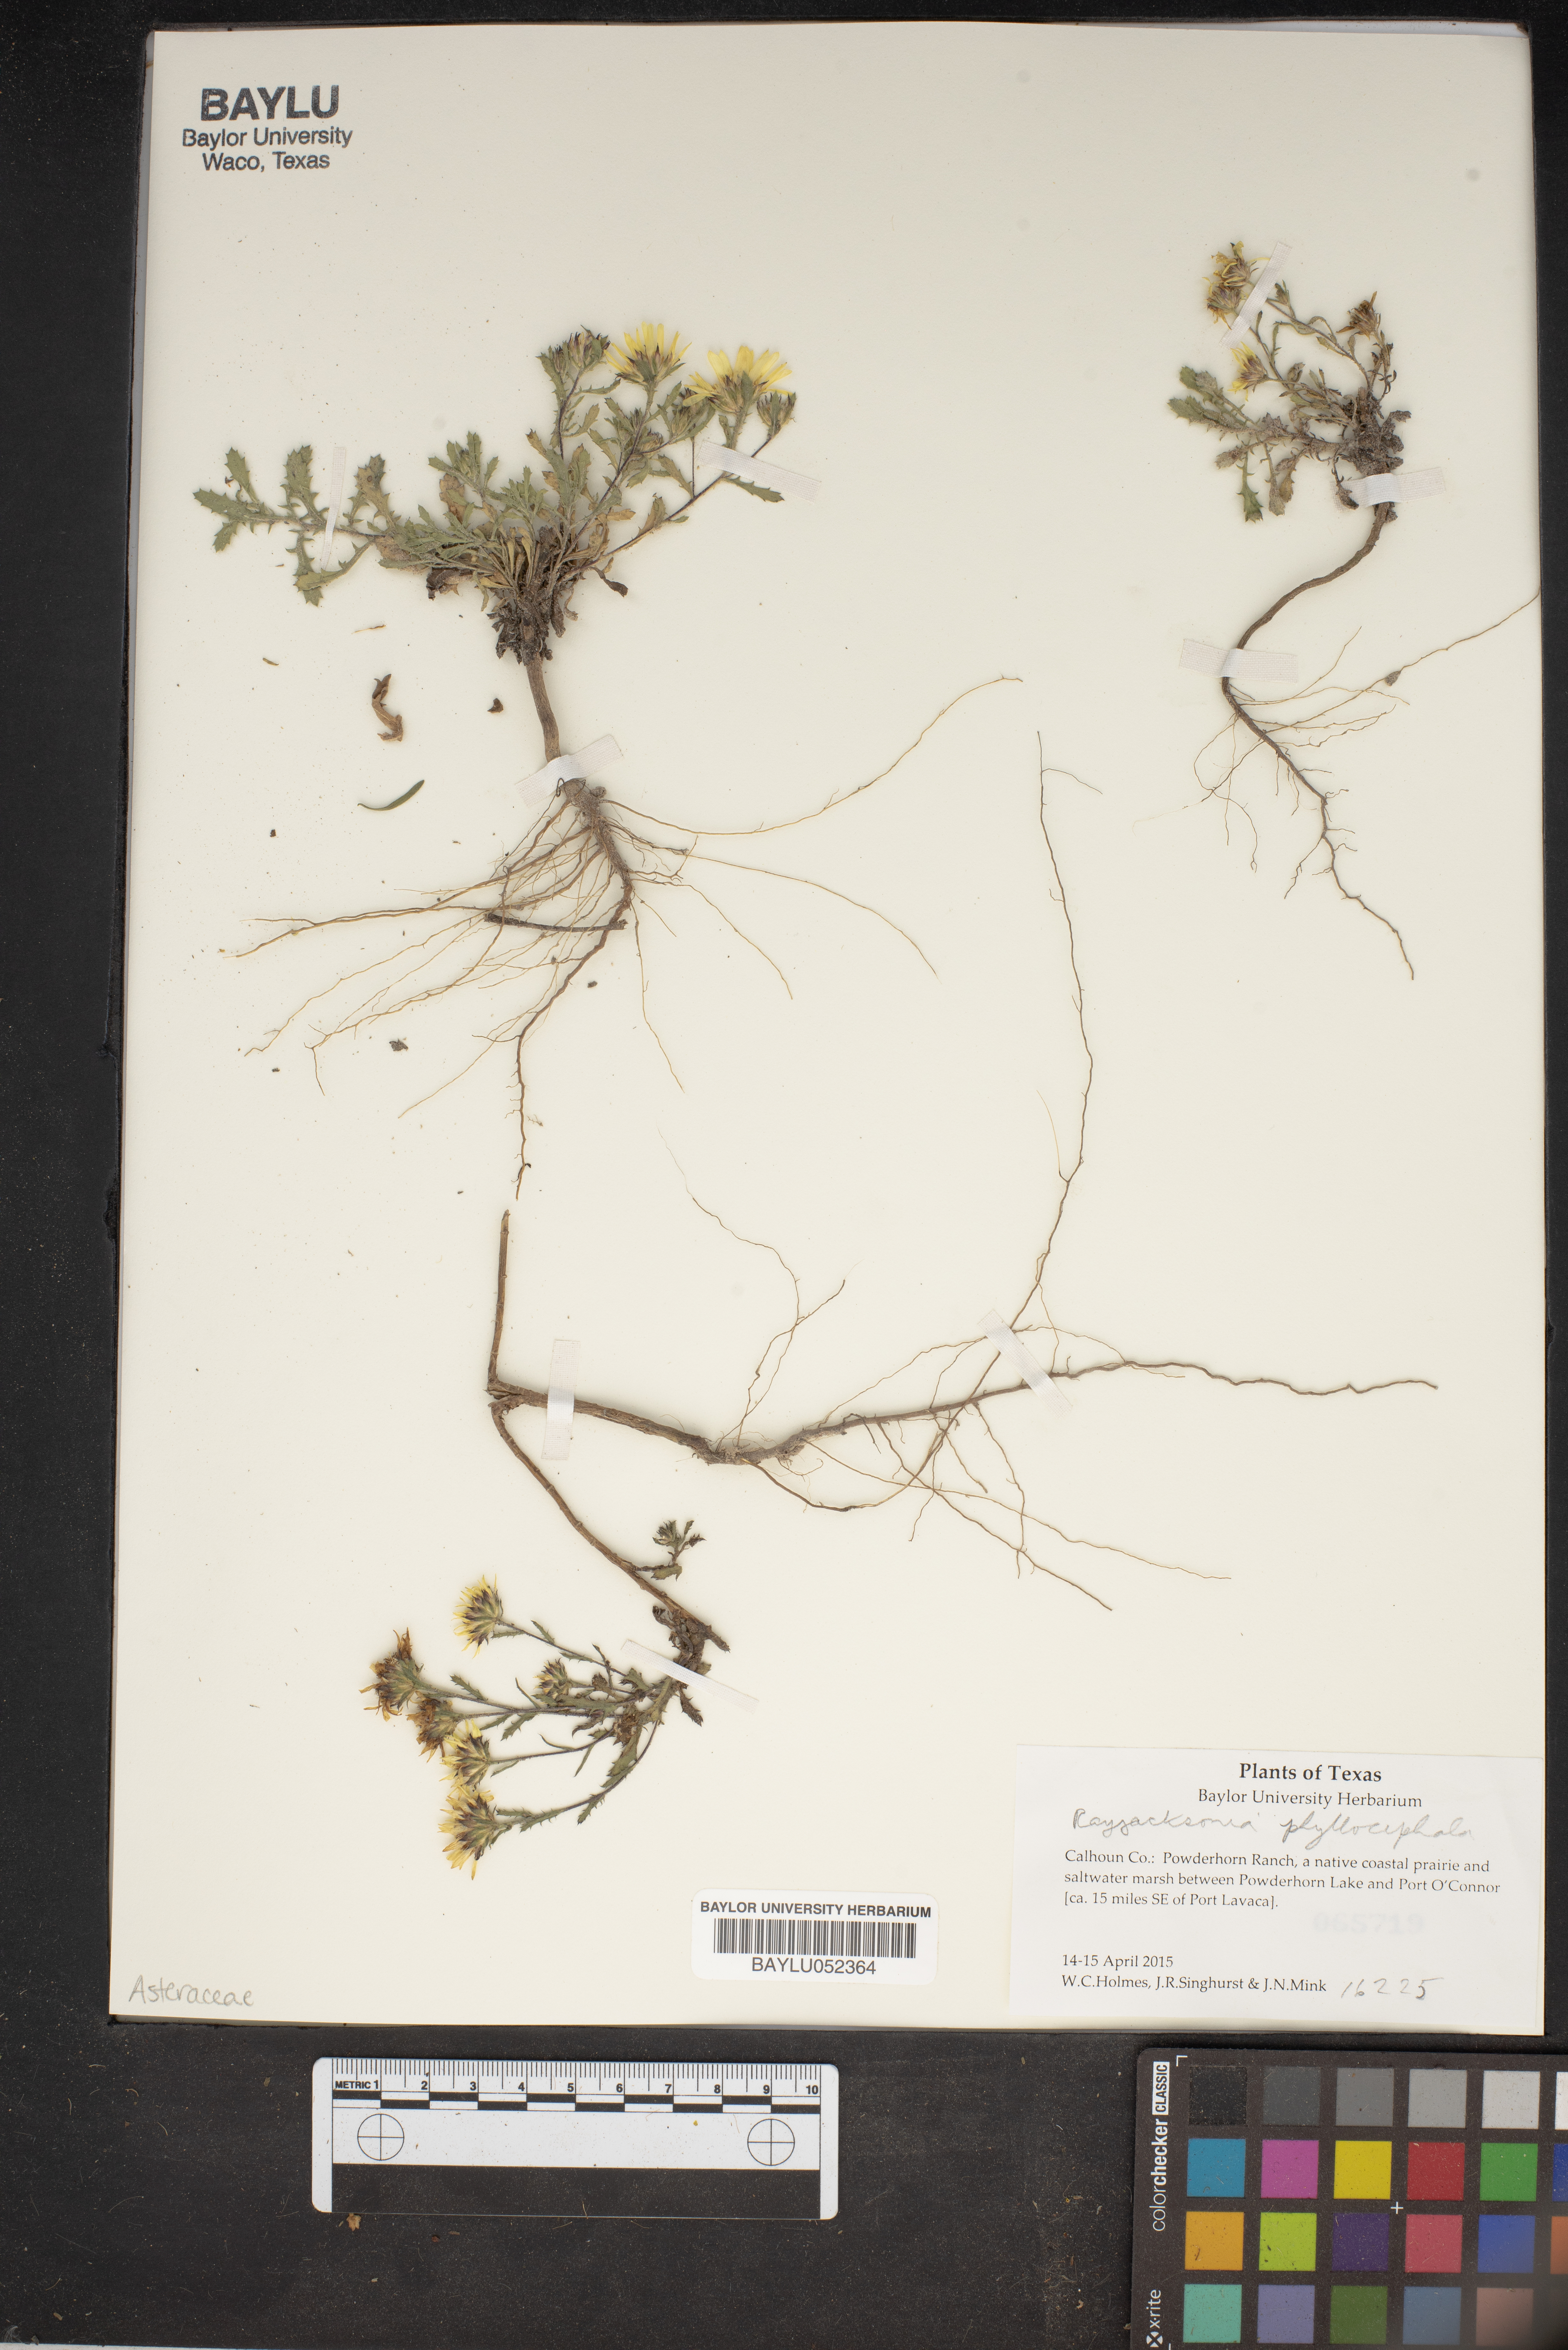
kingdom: Plantae
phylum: Tracheophyta
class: Magnoliopsida
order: Asterales
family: Asteraceae
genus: Rayjacksonia
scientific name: Rayjacksonia phyllocephala
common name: Gulf coast camphor daisy
